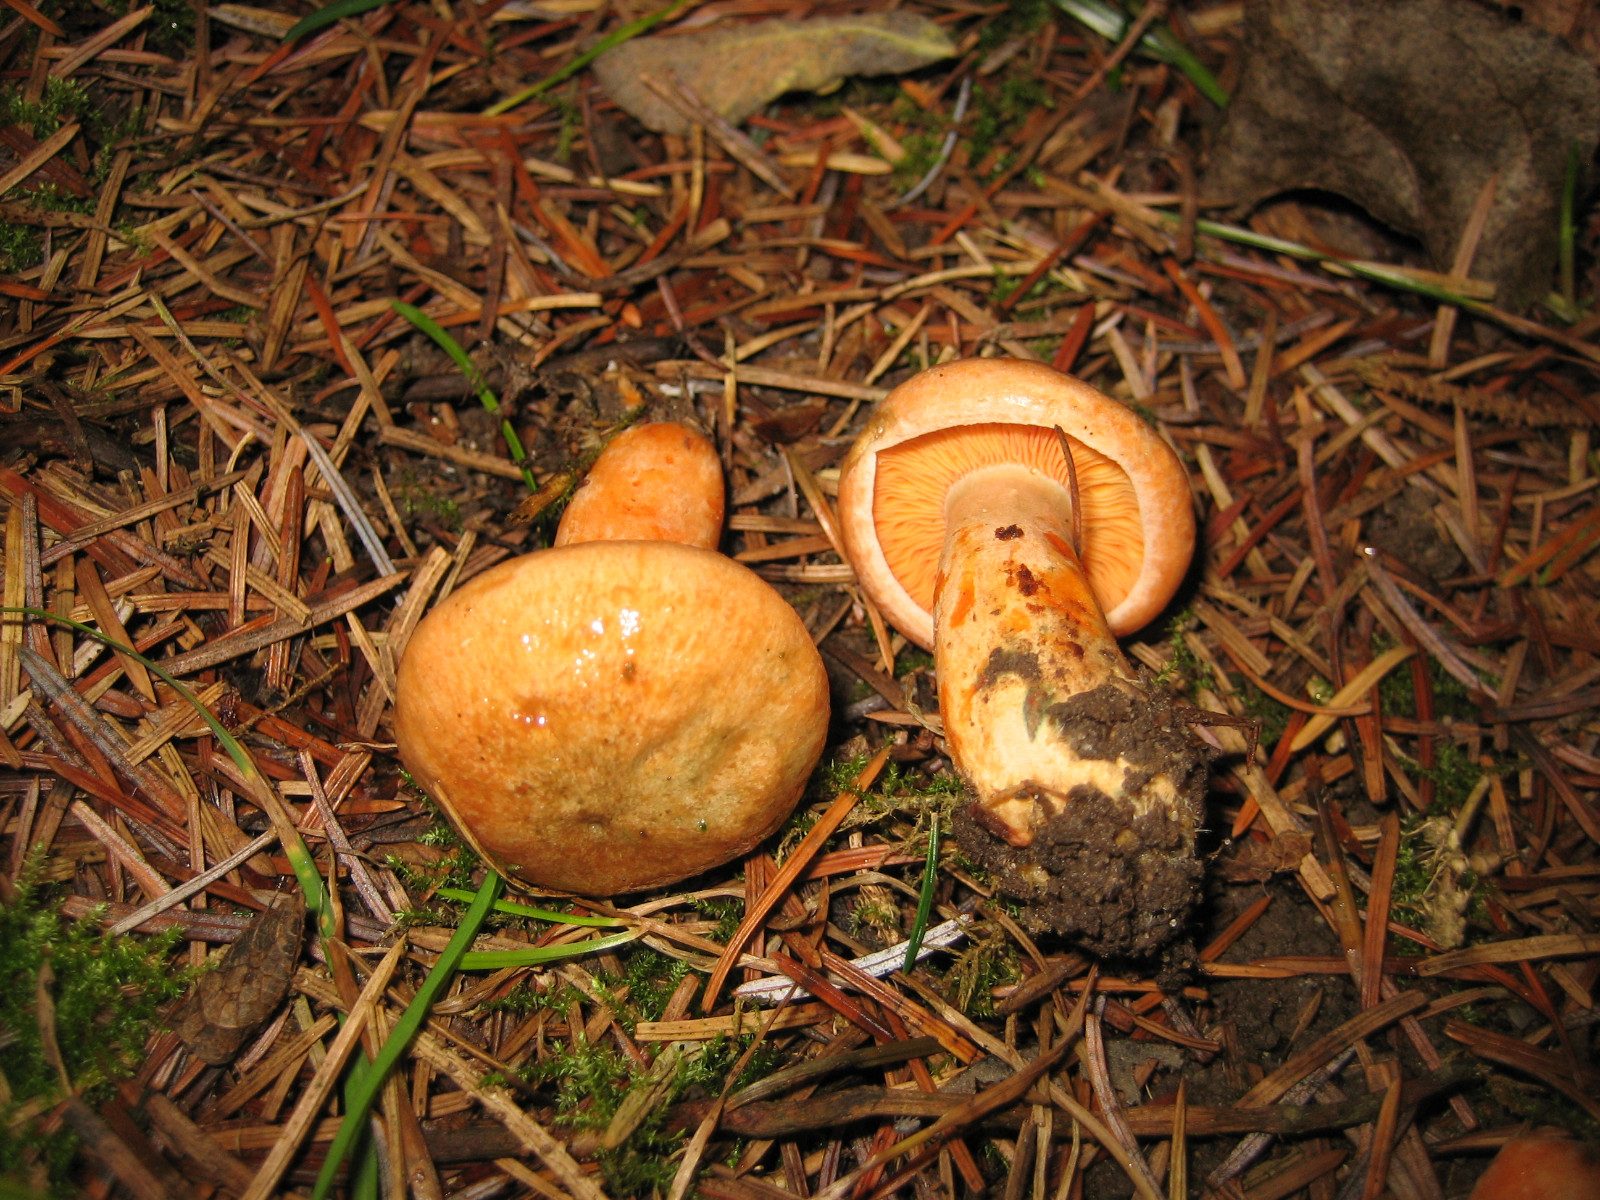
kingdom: Fungi
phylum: Basidiomycota
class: Agaricomycetes
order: Russulales
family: Russulaceae
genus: Lactarius
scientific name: Lactarius deterrimus
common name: gran-mælkehat
